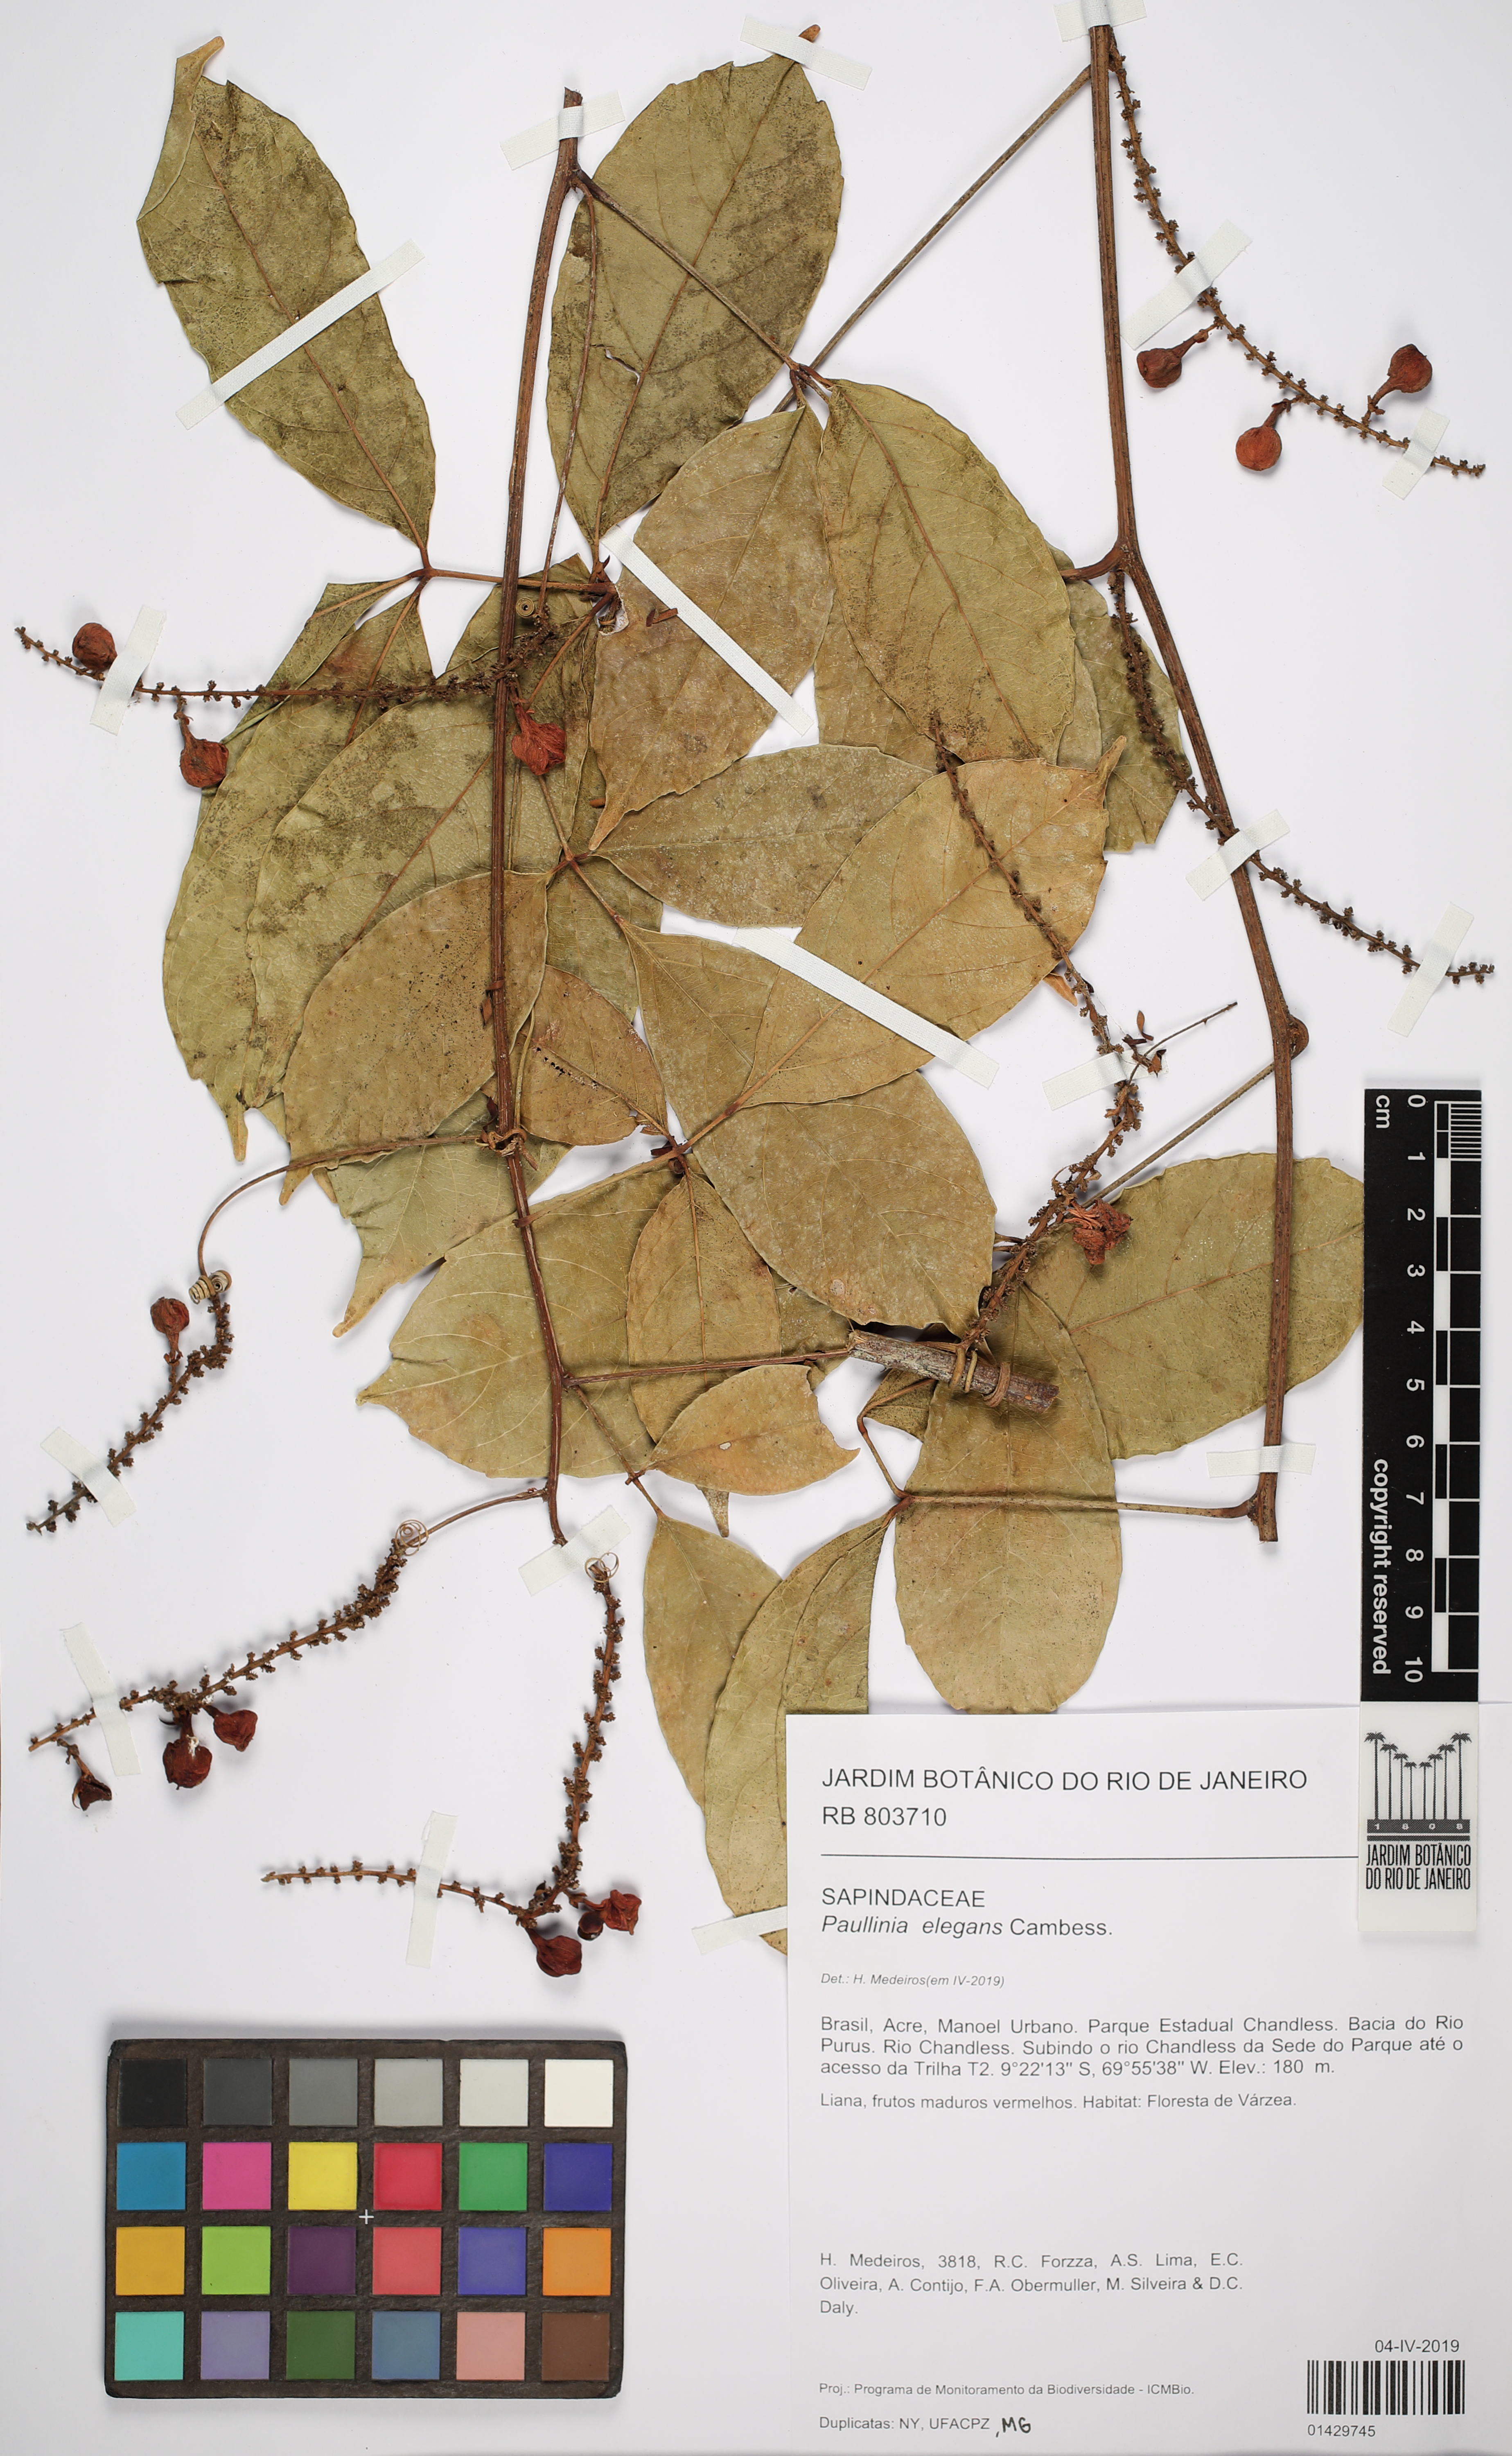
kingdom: Plantae
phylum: Tracheophyta
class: Magnoliopsida
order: Sapindales
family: Sapindaceae
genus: Paullinia
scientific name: Paullinia elegans
